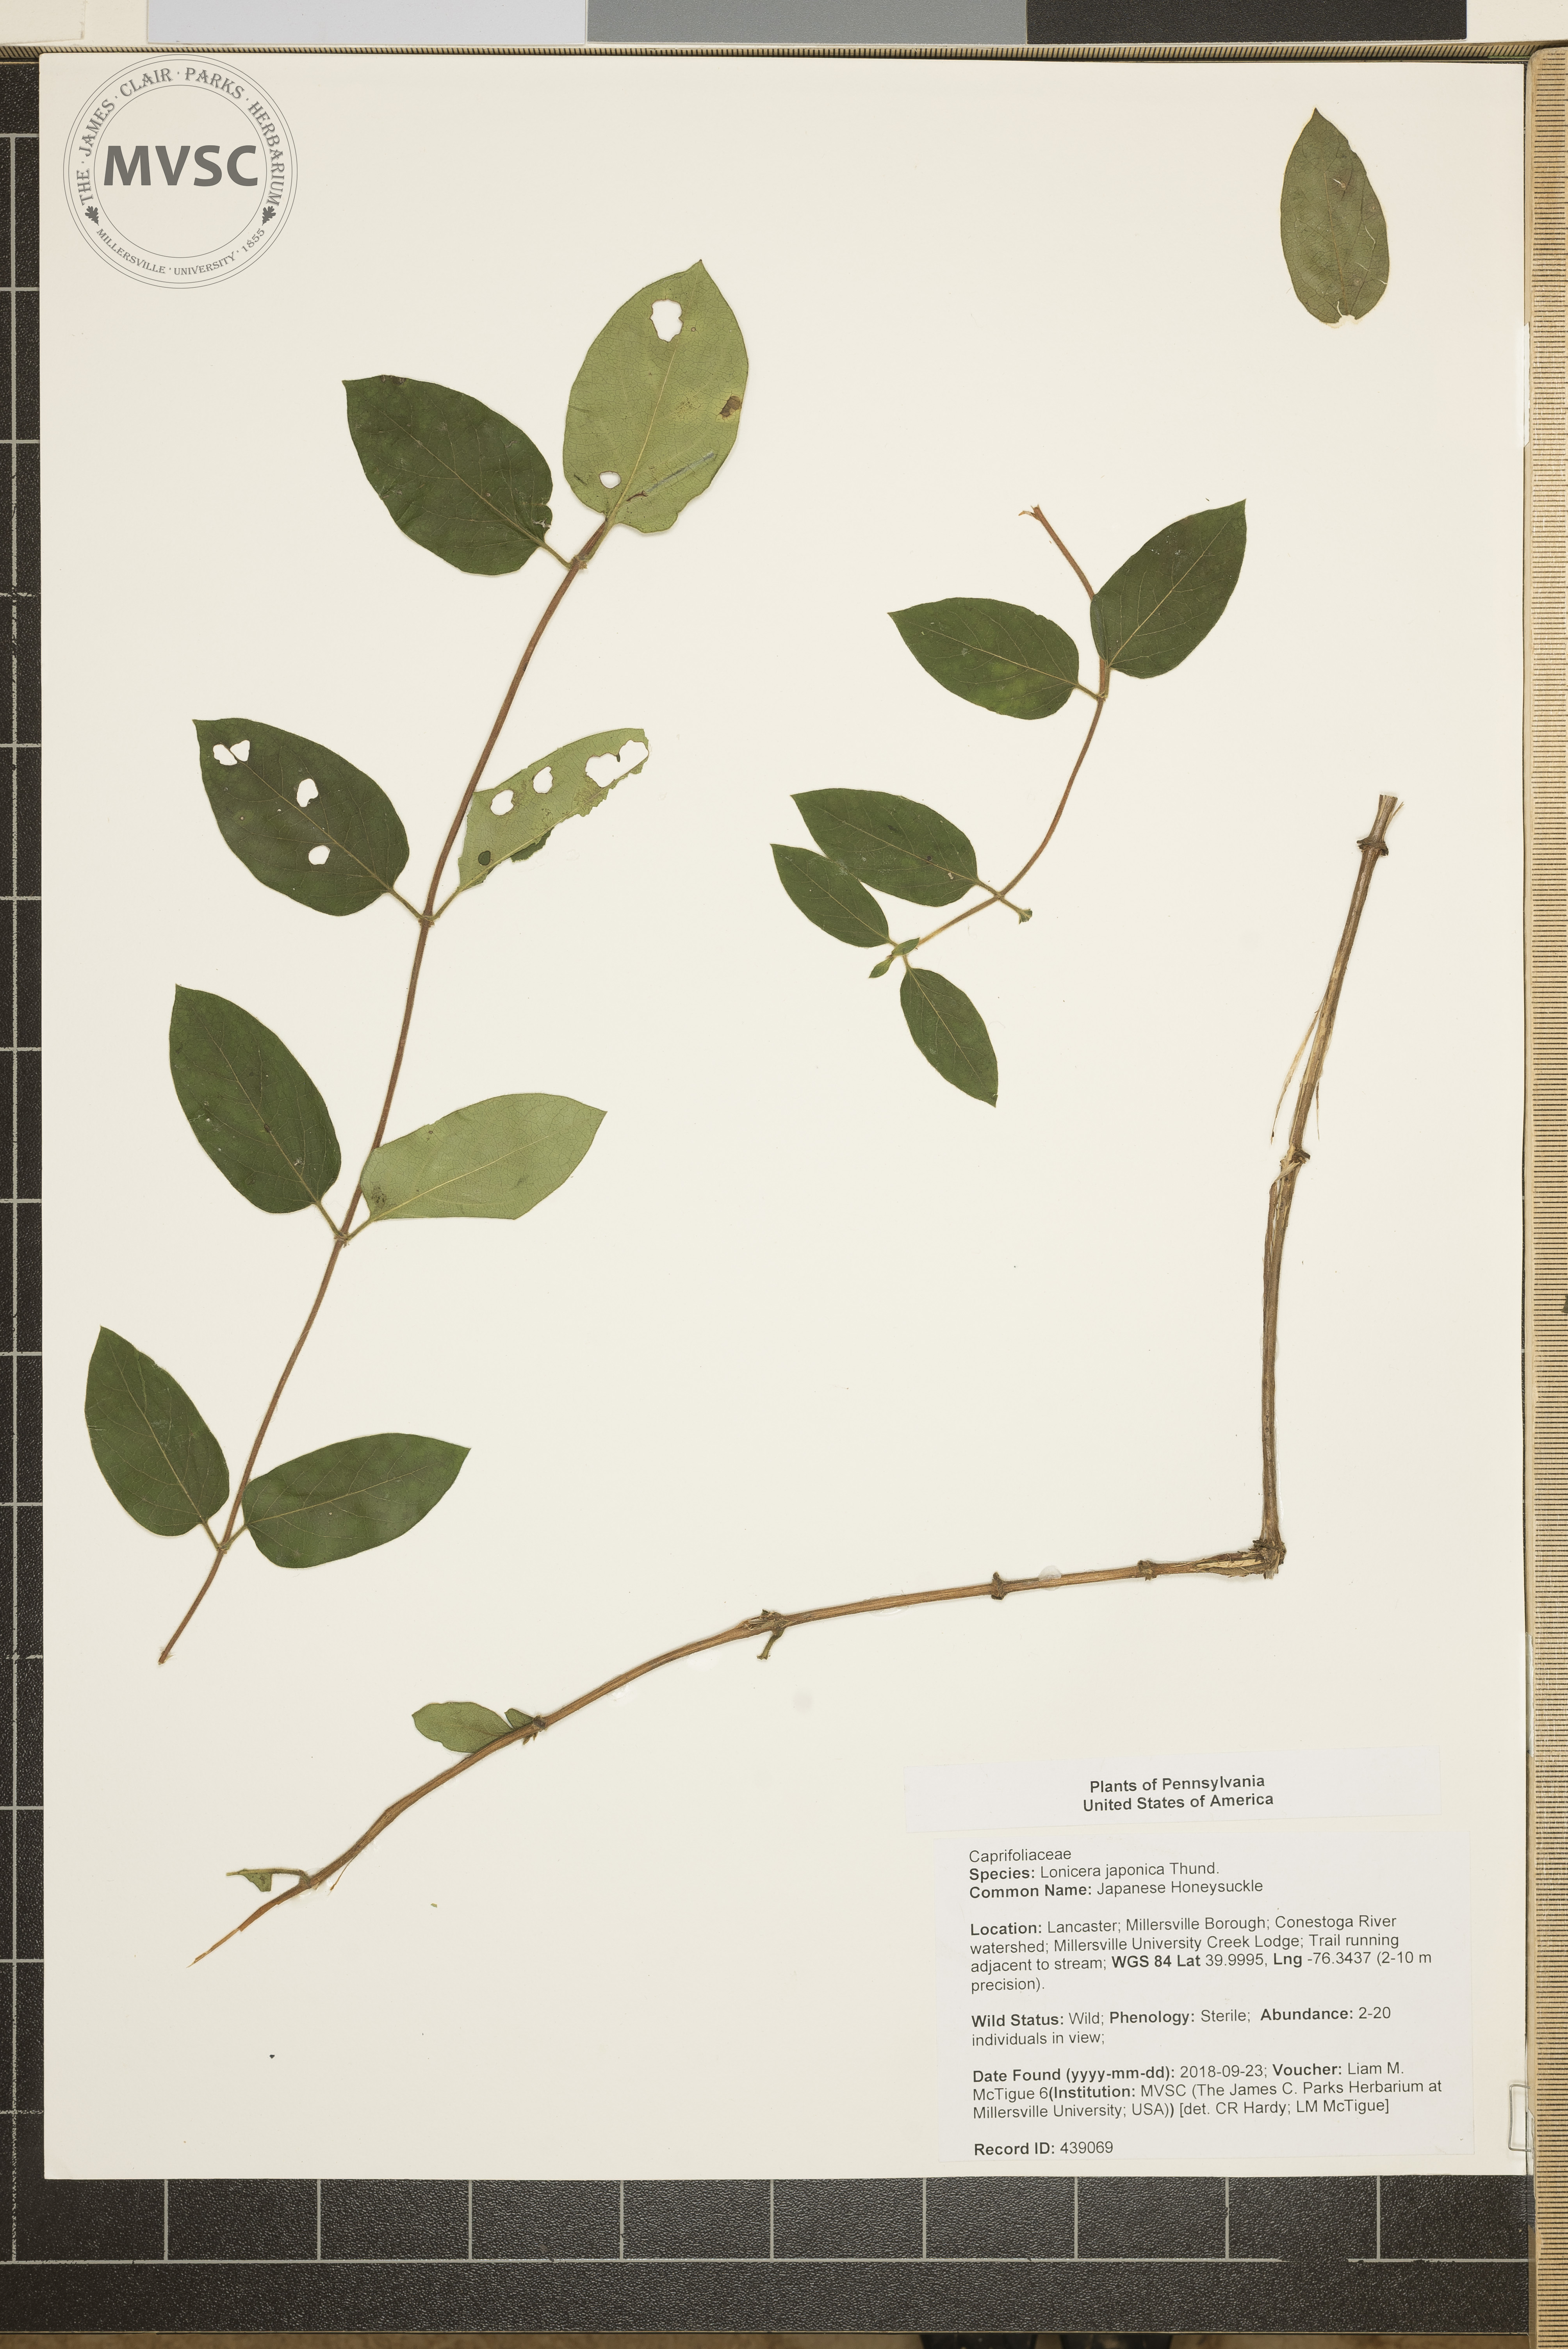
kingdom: Plantae
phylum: Tracheophyta
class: Magnoliopsida
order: Dipsacales
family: Caprifoliaceae
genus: Lonicera
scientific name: Lonicera japonica
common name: Japanese Honeysuckle
